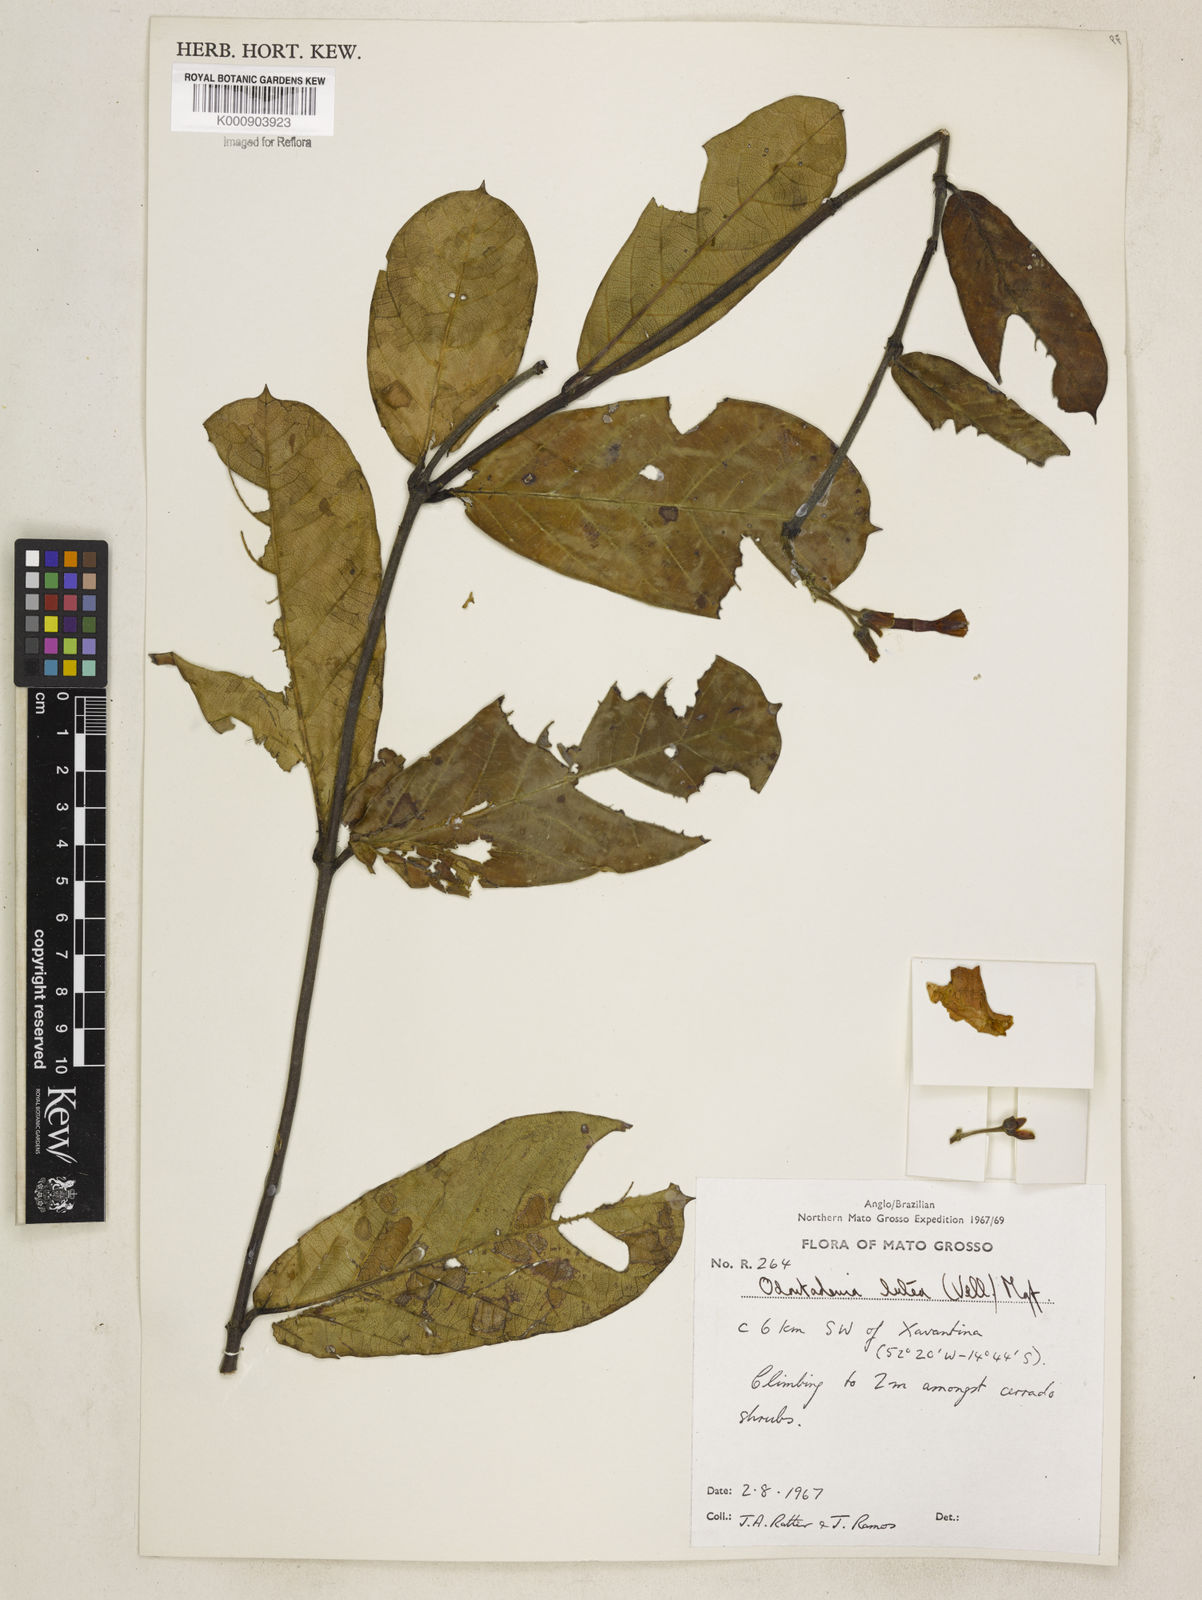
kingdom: Plantae
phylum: Tracheophyta
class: Magnoliopsida
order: Gentianales
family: Apocynaceae
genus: Odontadenia
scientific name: Odontadenia lutea
